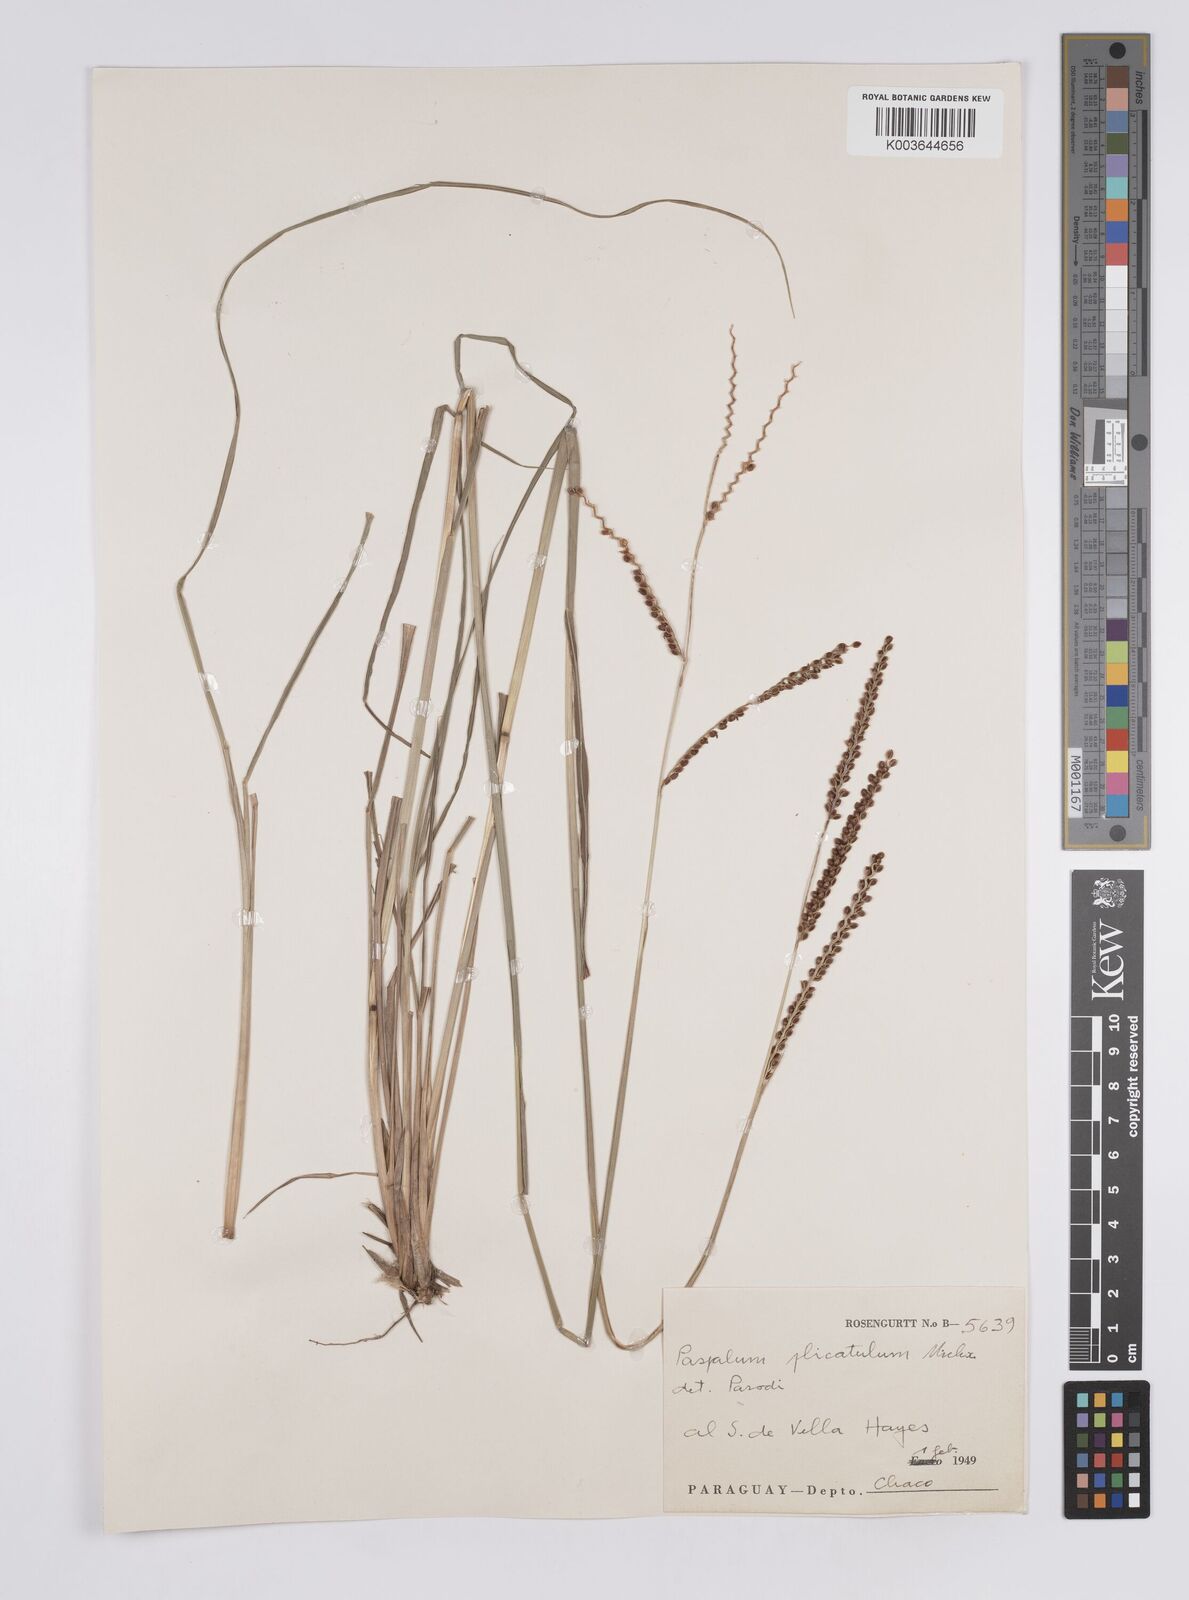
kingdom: Plantae
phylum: Tracheophyta
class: Liliopsida
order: Poales
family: Poaceae
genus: Paspalum
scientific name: Paspalum plicatulum
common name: Top paspalum
